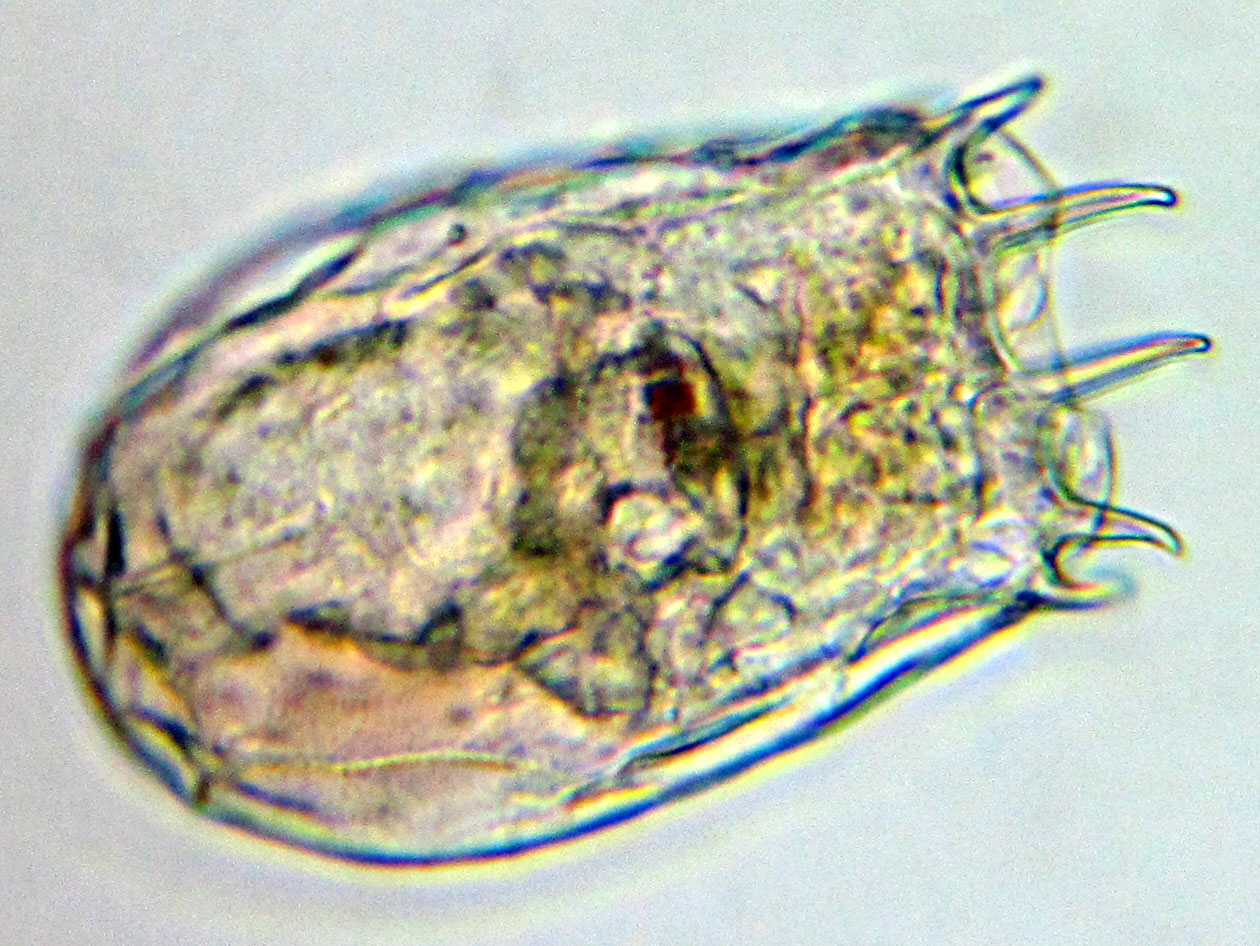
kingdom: Animalia
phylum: Rotifera
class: Eurotatoria
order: Ploima
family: Brachionidae
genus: Keratella
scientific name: Keratella cruciformis
